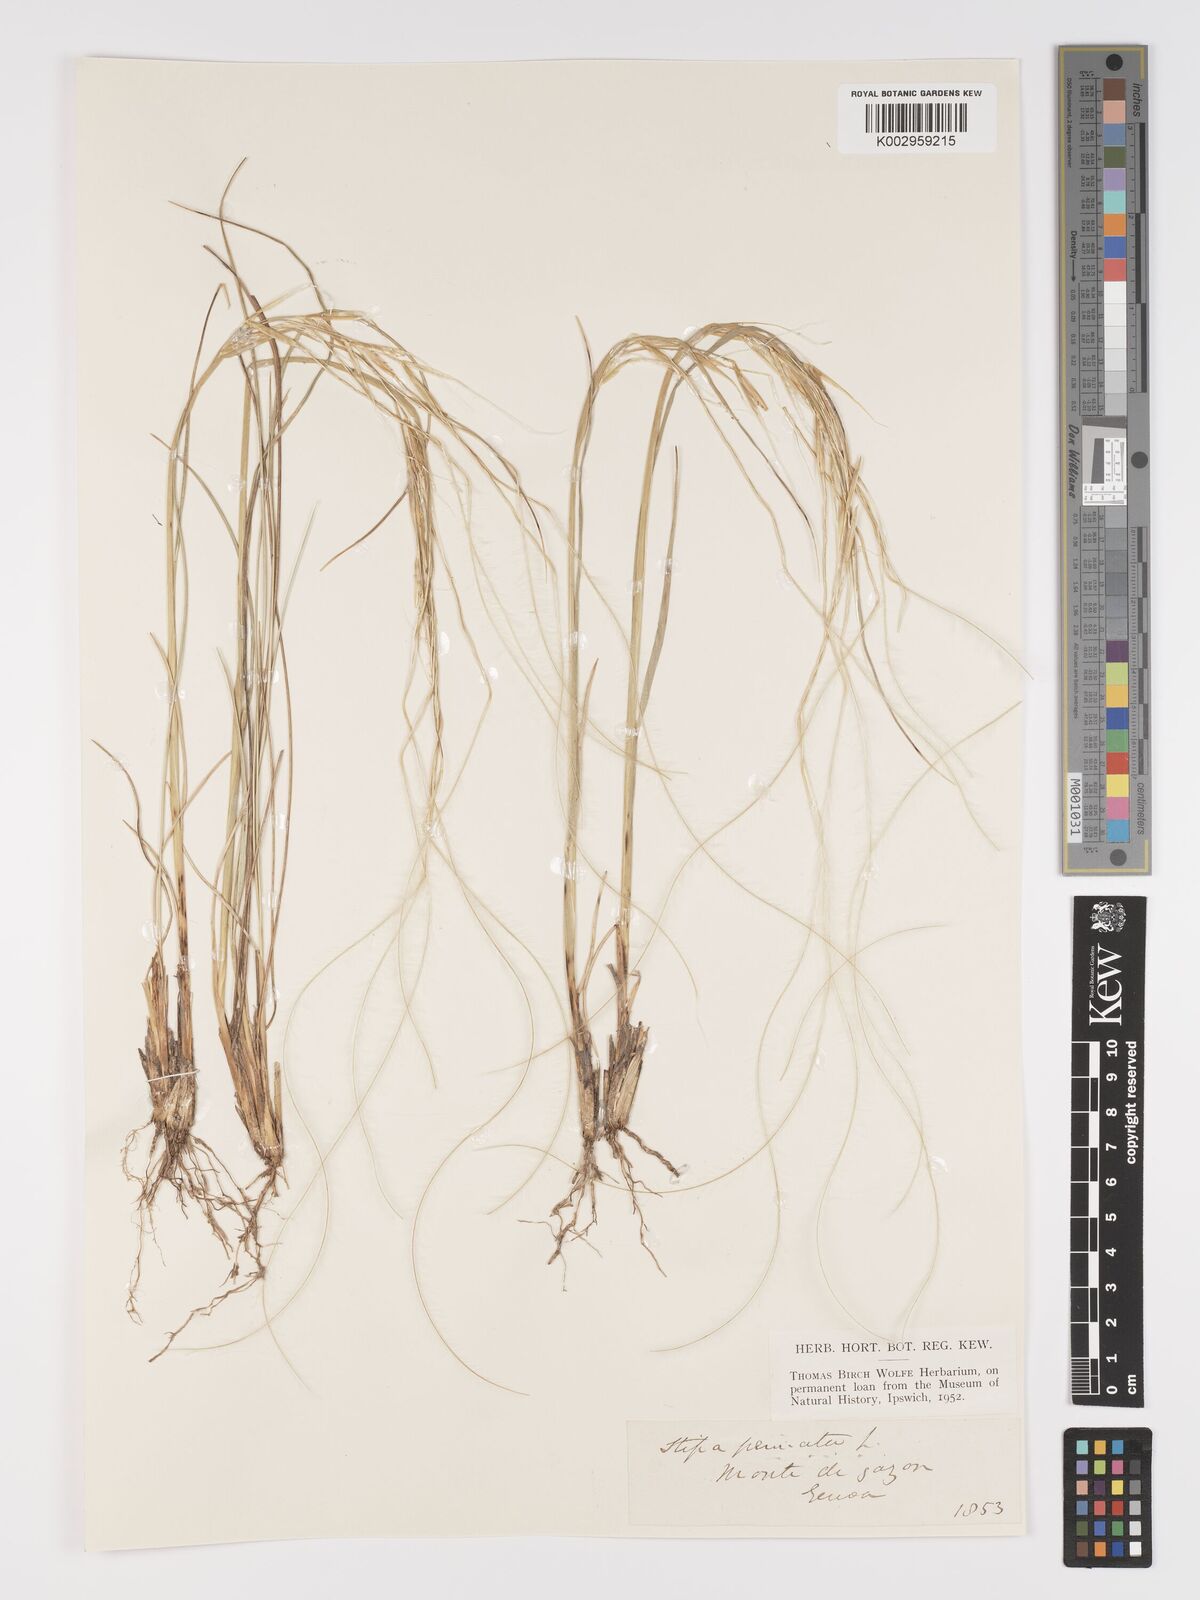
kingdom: Plantae
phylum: Tracheophyta
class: Liliopsida
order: Poales
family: Poaceae
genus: Stipa
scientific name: Stipa pennata
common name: European feather grass
